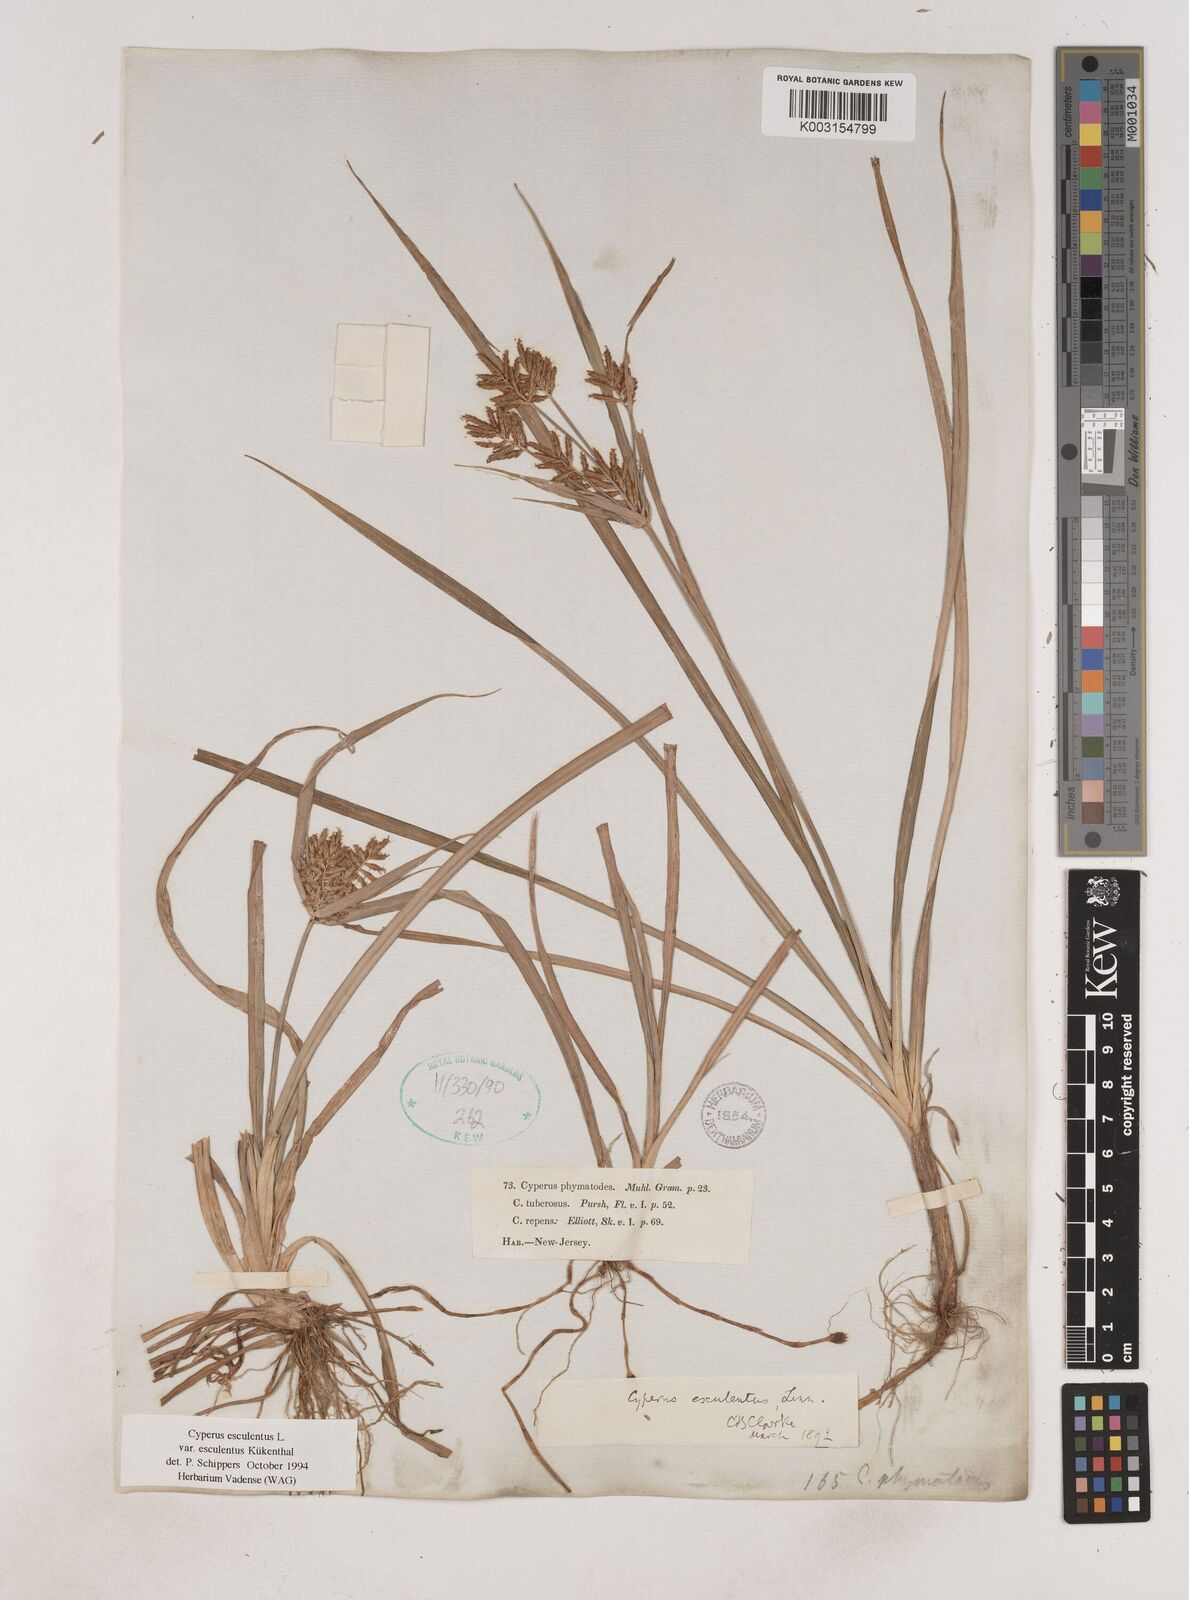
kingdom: Plantae
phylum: Tracheophyta
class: Liliopsida
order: Poales
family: Cyperaceae
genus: Cyperus
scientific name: Cyperus esculentus
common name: Yellow nutsedge
